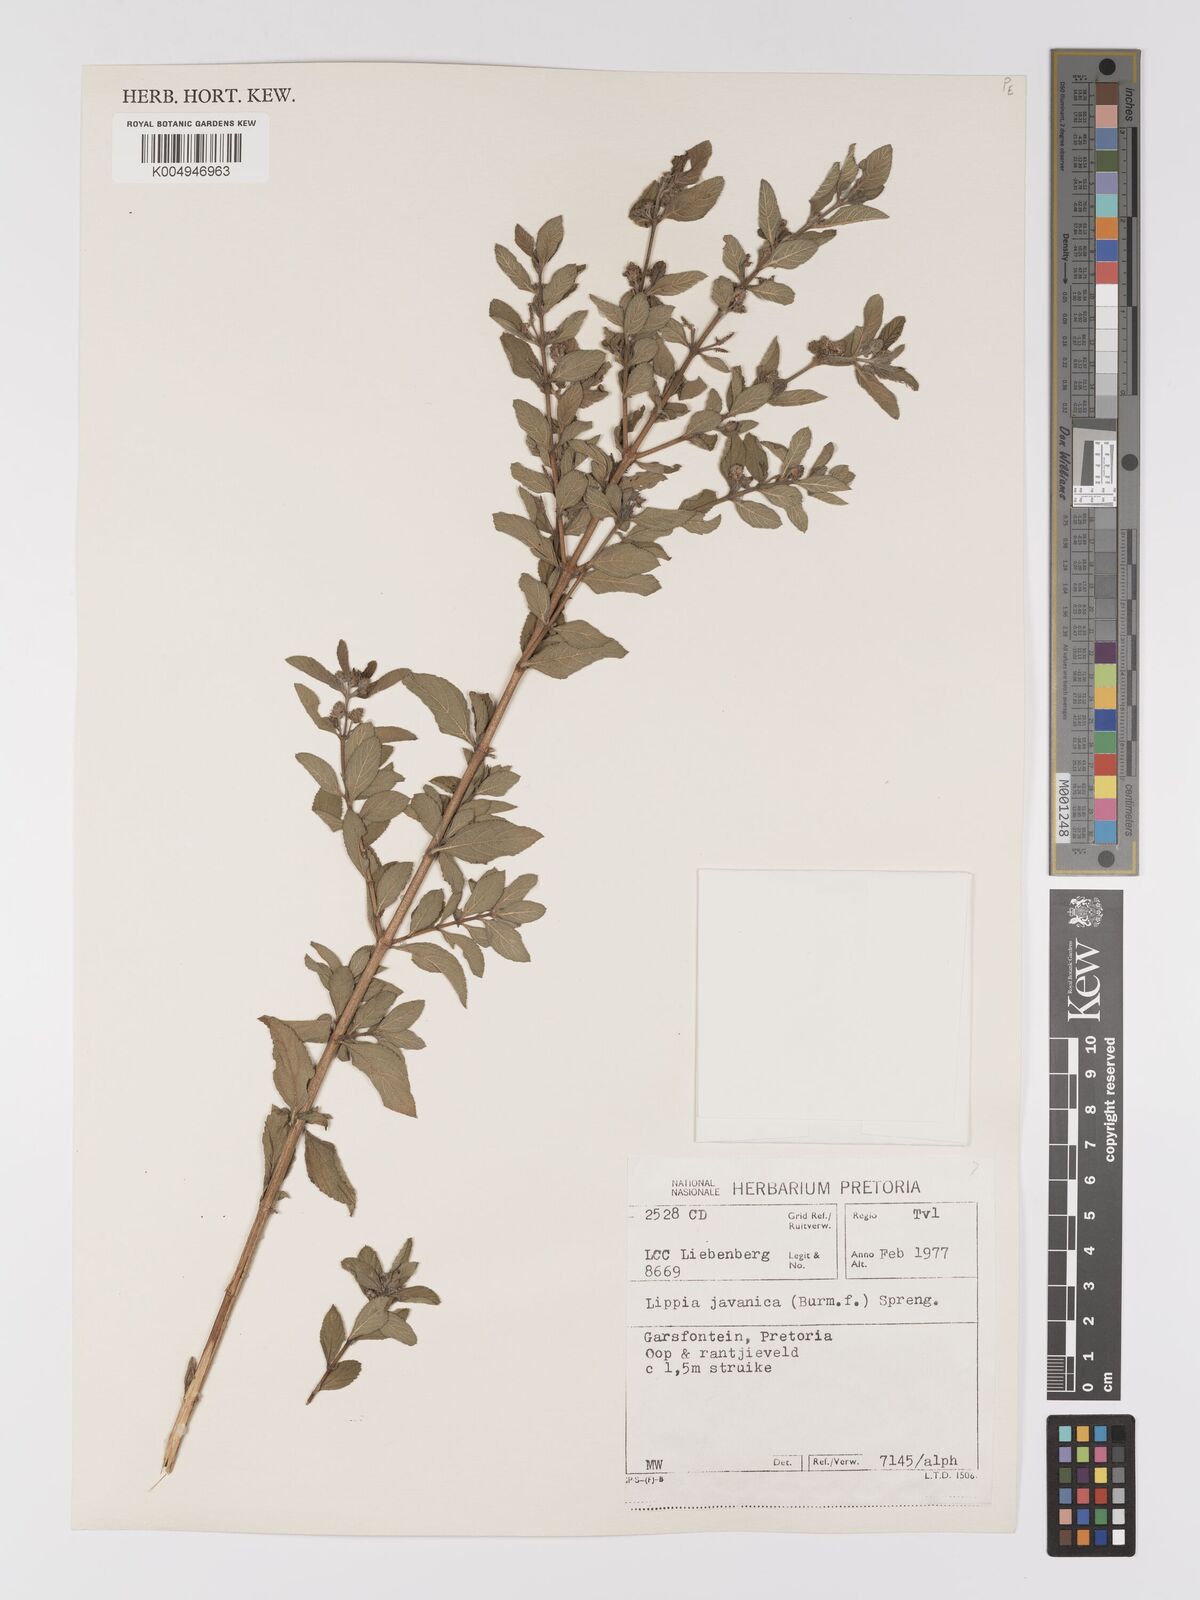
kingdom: Plantae
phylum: Tracheophyta
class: Magnoliopsida
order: Lamiales
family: Verbenaceae
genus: Lippia
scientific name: Lippia javanica
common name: Lemonbush
